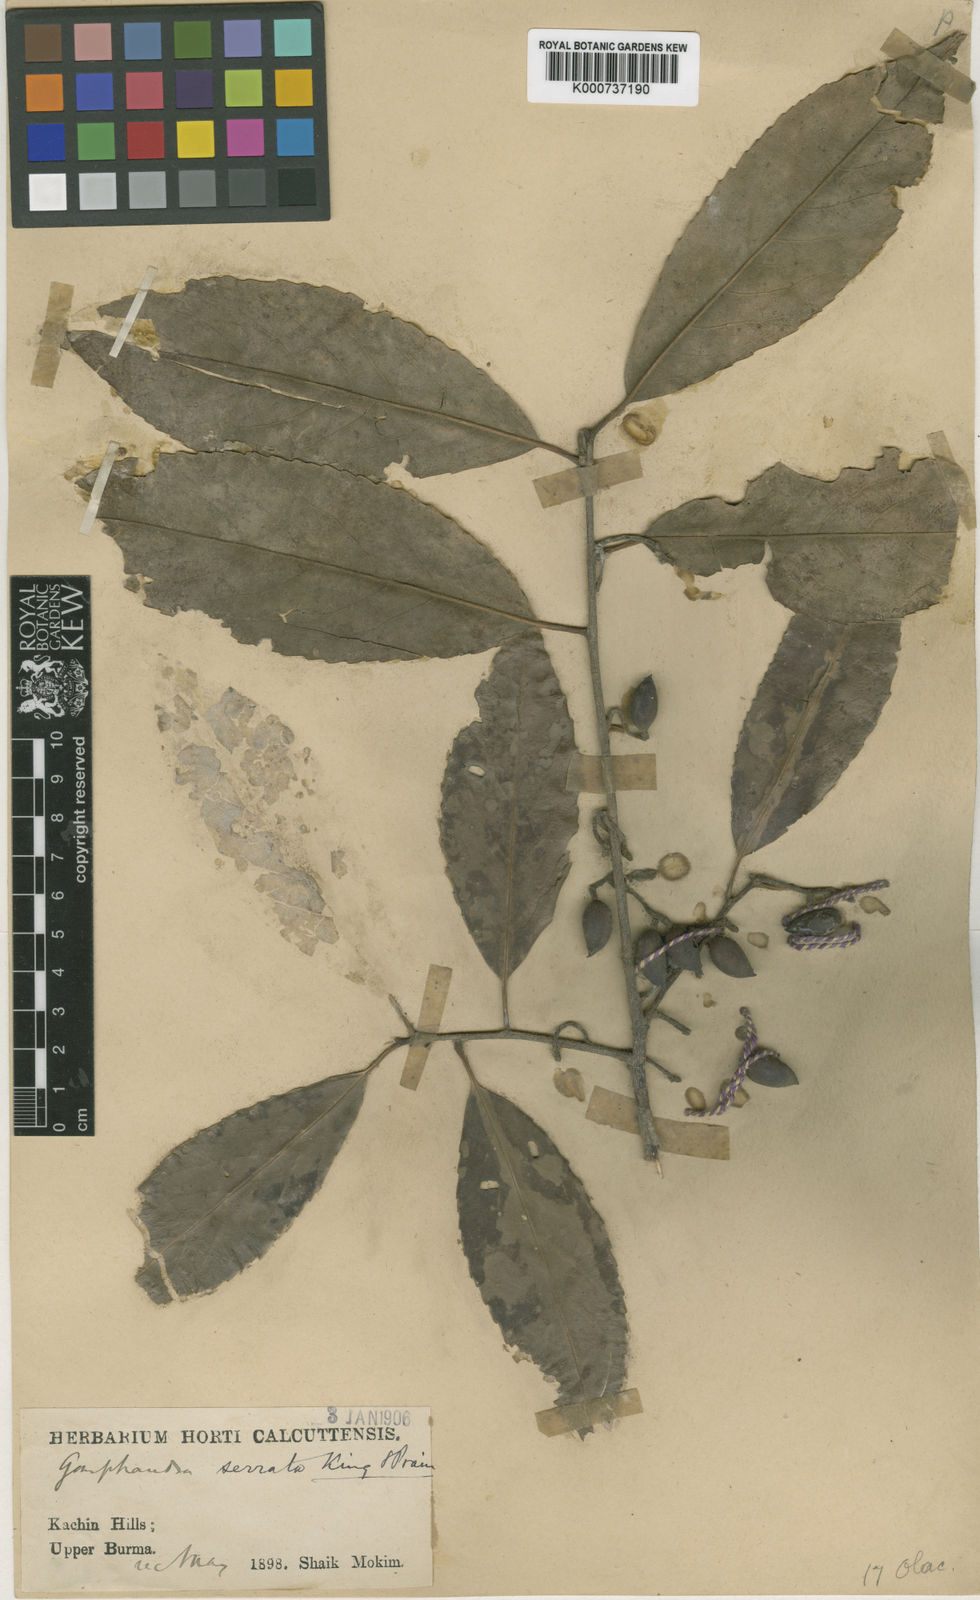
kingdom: Plantae
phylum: Tracheophyta
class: Magnoliopsida
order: Rosales
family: Rosaceae
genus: Prunus
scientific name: Prunus
